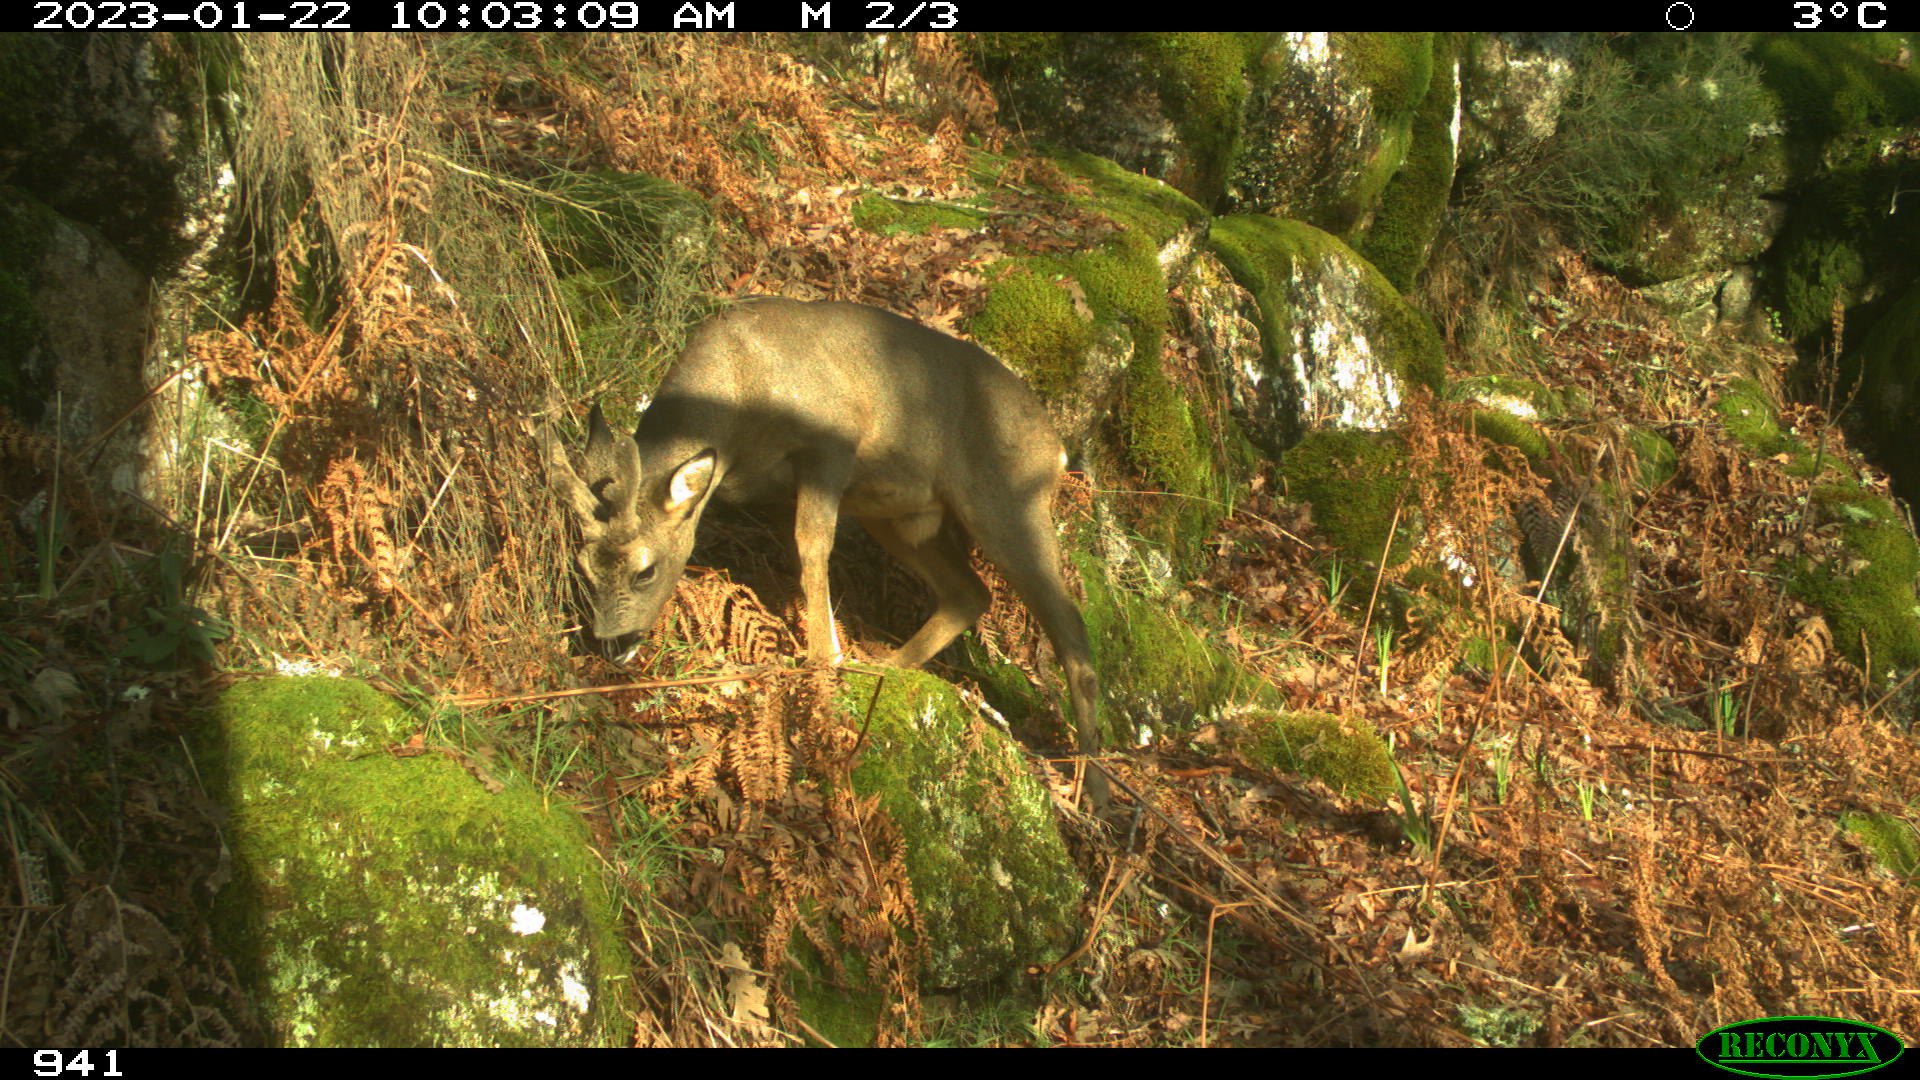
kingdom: Animalia
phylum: Chordata
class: Mammalia
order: Artiodactyla
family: Cervidae
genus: Capreolus
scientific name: Capreolus capreolus
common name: Western roe deer
